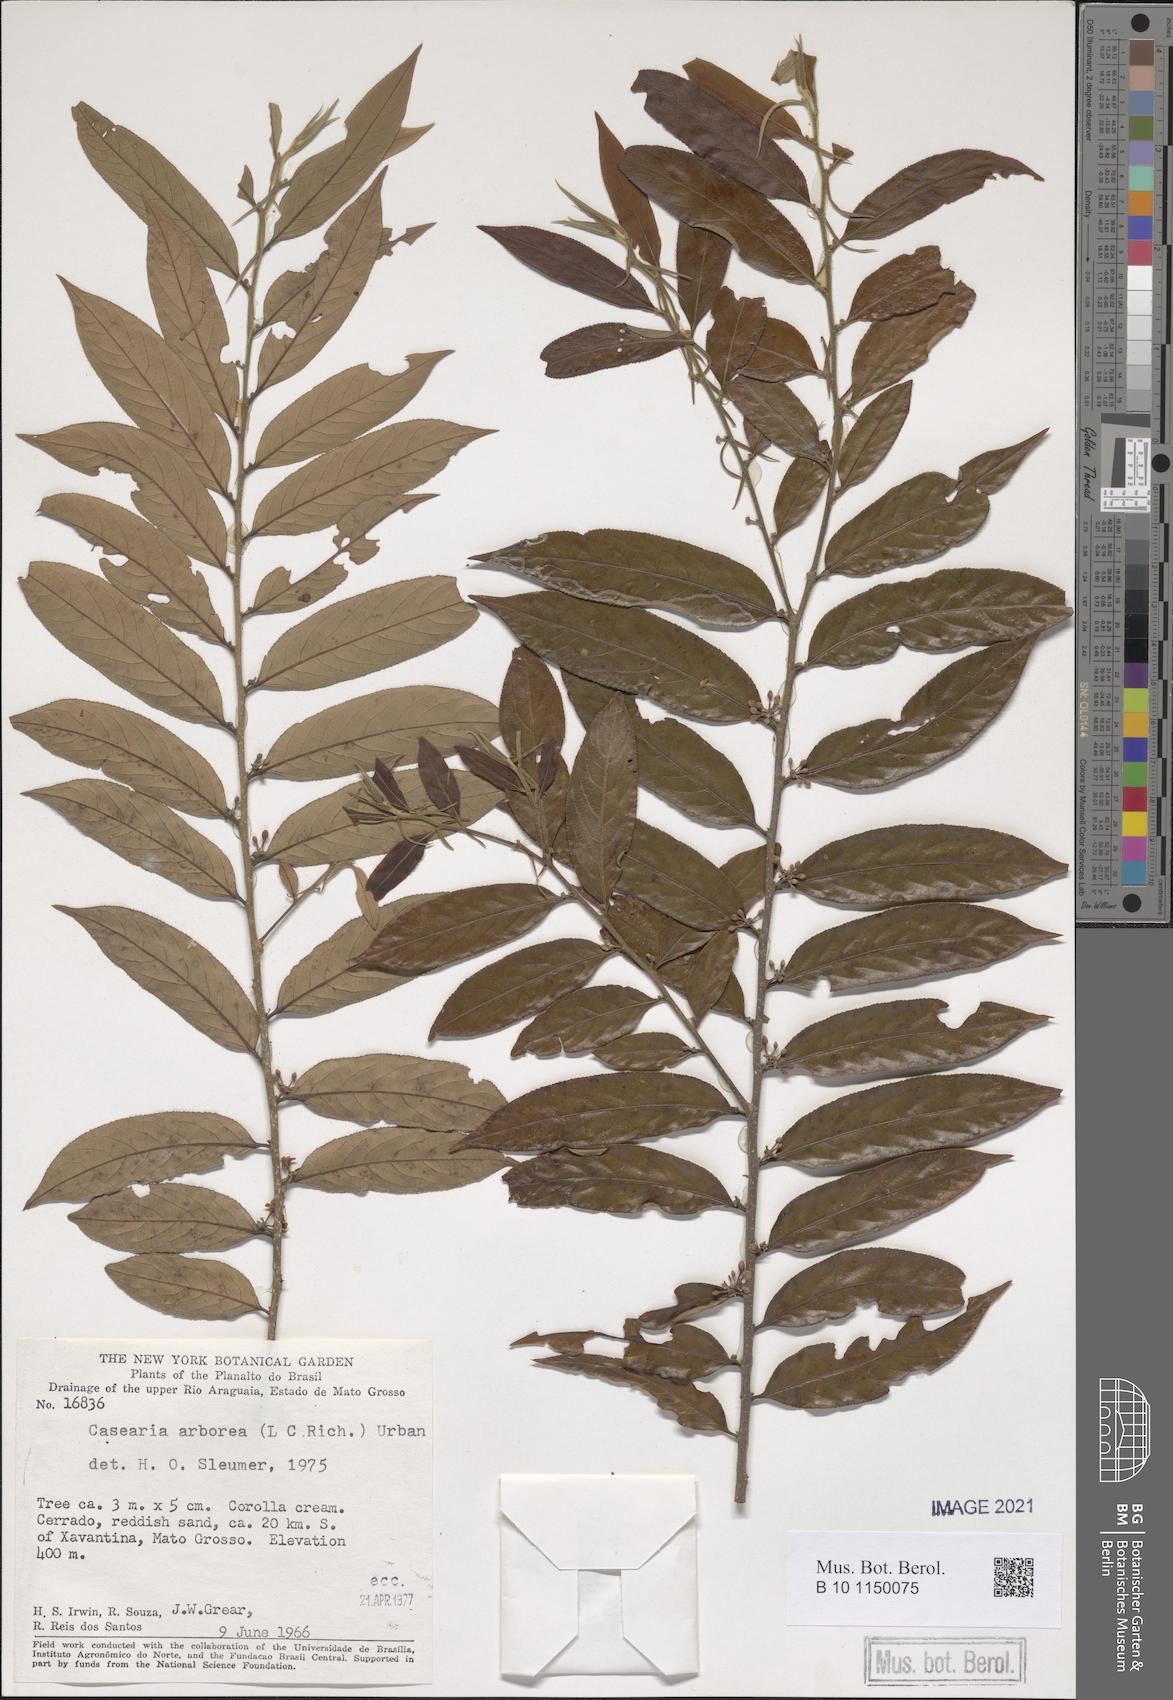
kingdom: Plantae
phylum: Tracheophyta
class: Magnoliopsida
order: Malpighiales
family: Salicaceae
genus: Casearia
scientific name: Casearia arborea
